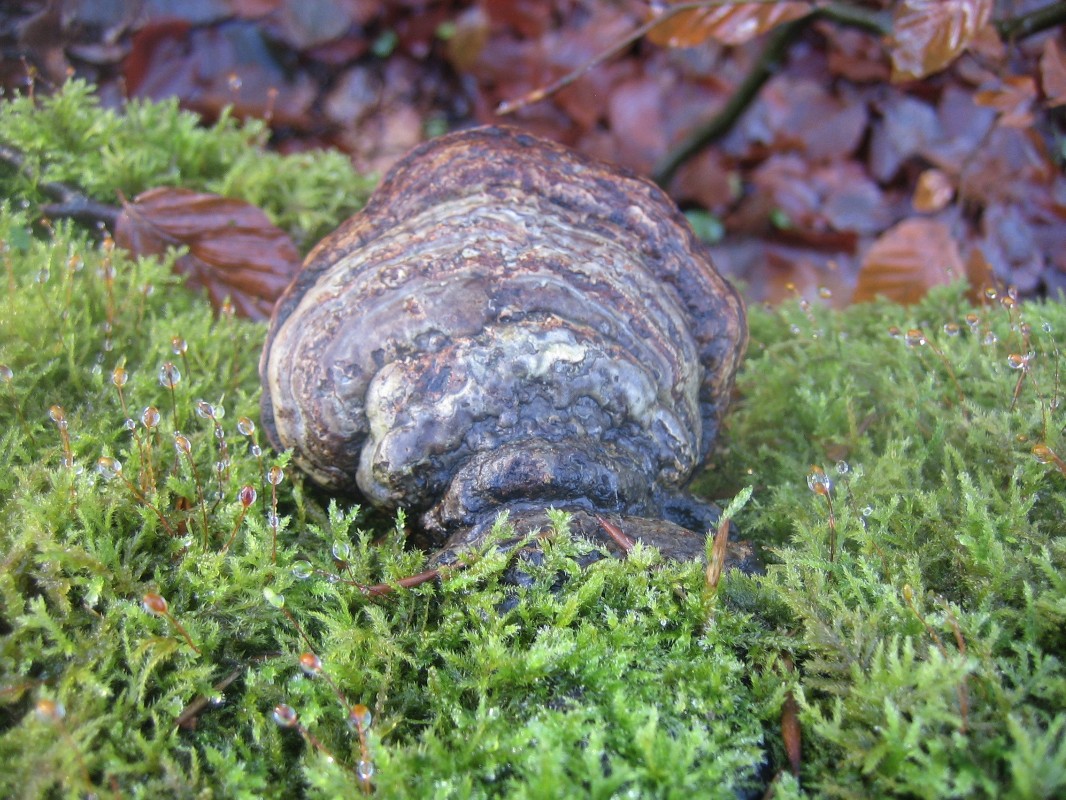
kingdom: Fungi
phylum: Basidiomycota
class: Agaricomycetes
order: Polyporales
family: Polyporaceae
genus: Fomes
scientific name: Fomes fomentarius
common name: tøndersvamp
